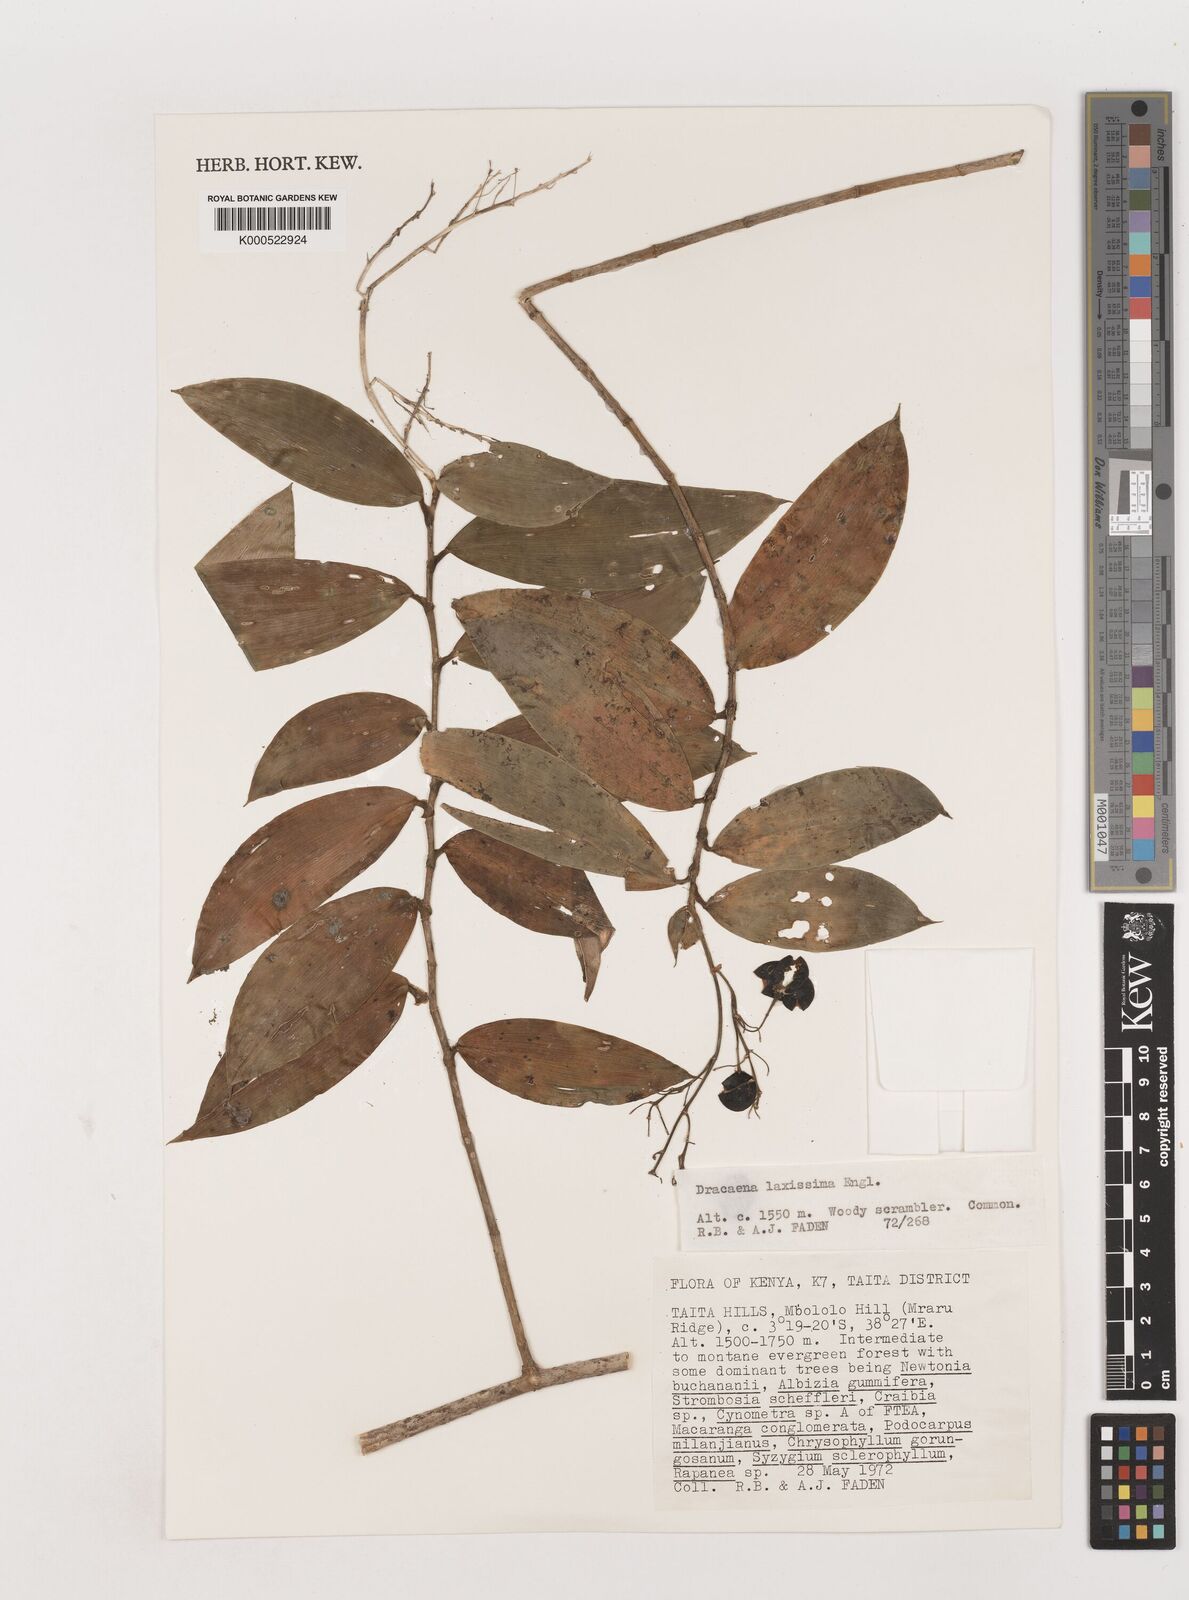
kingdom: Plantae
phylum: Tracheophyta
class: Liliopsida
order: Asparagales
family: Asparagaceae
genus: Dracaena
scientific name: Dracaena laxissima
